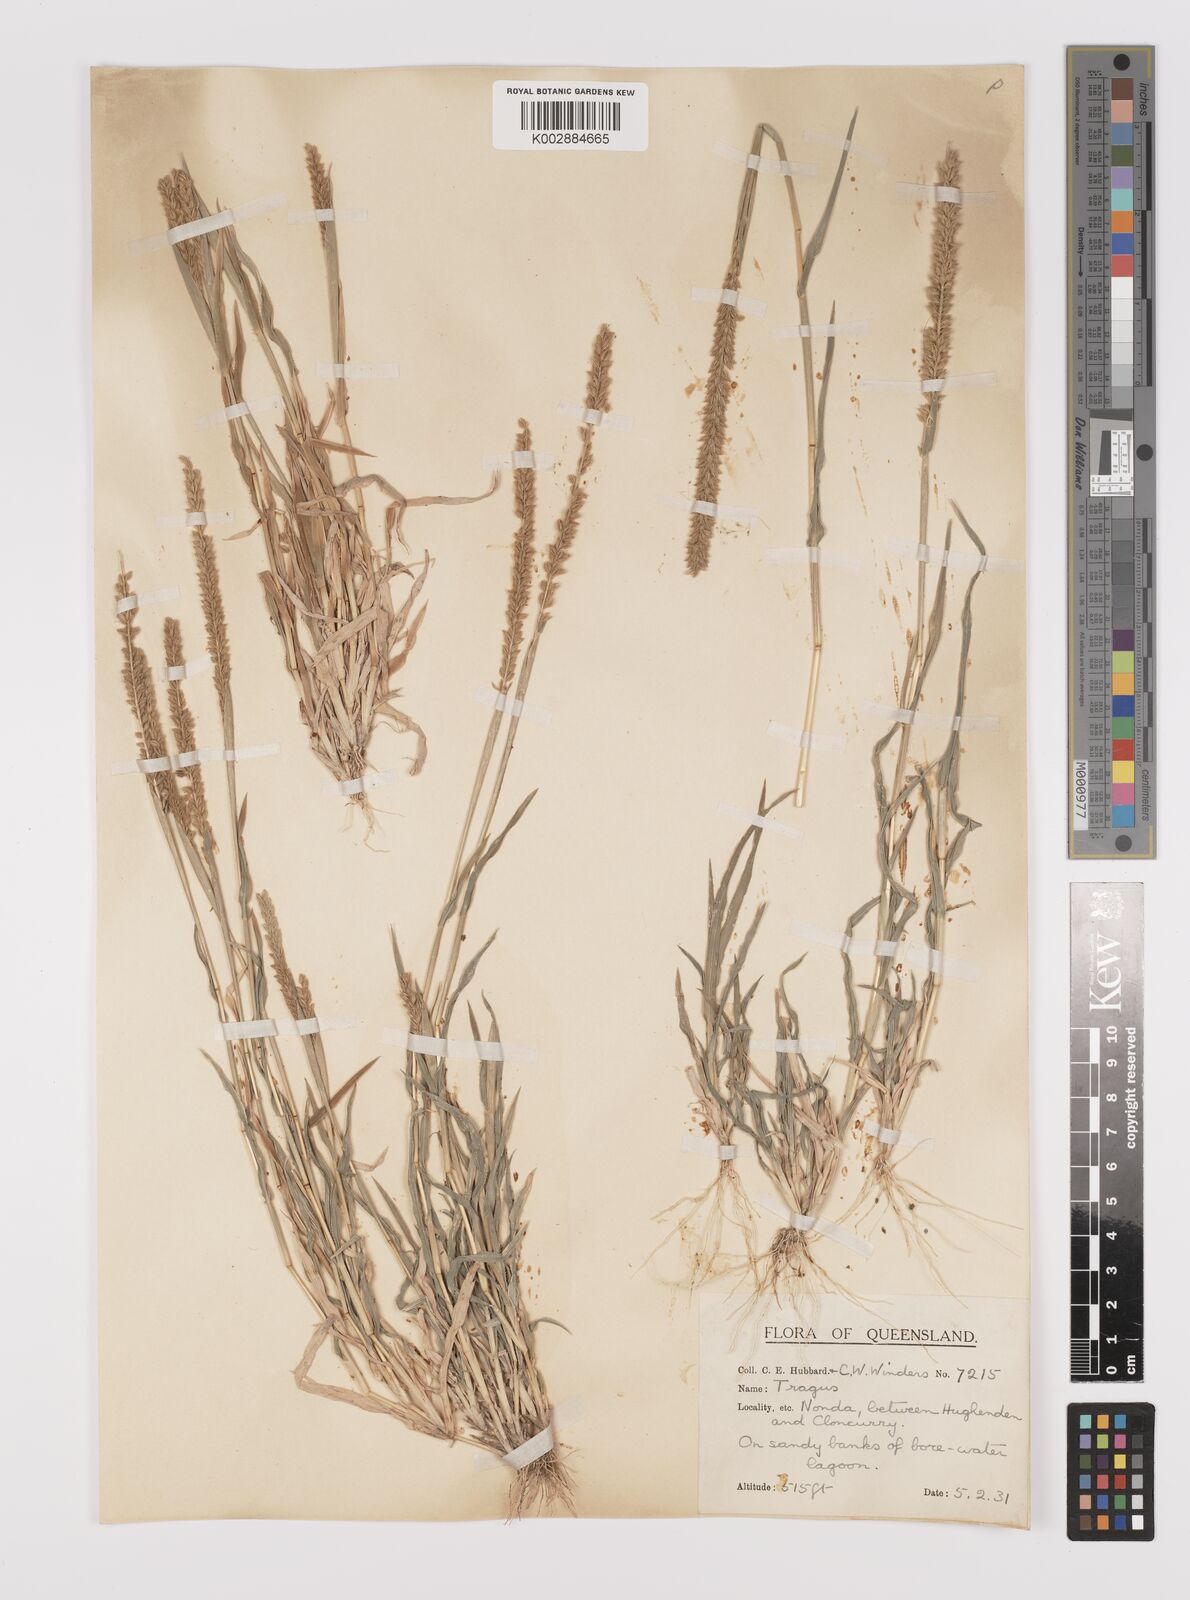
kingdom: Plantae
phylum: Tracheophyta
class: Liliopsida
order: Poales
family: Poaceae
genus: Tragus
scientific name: Tragus australianus
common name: Australian bur-grass
